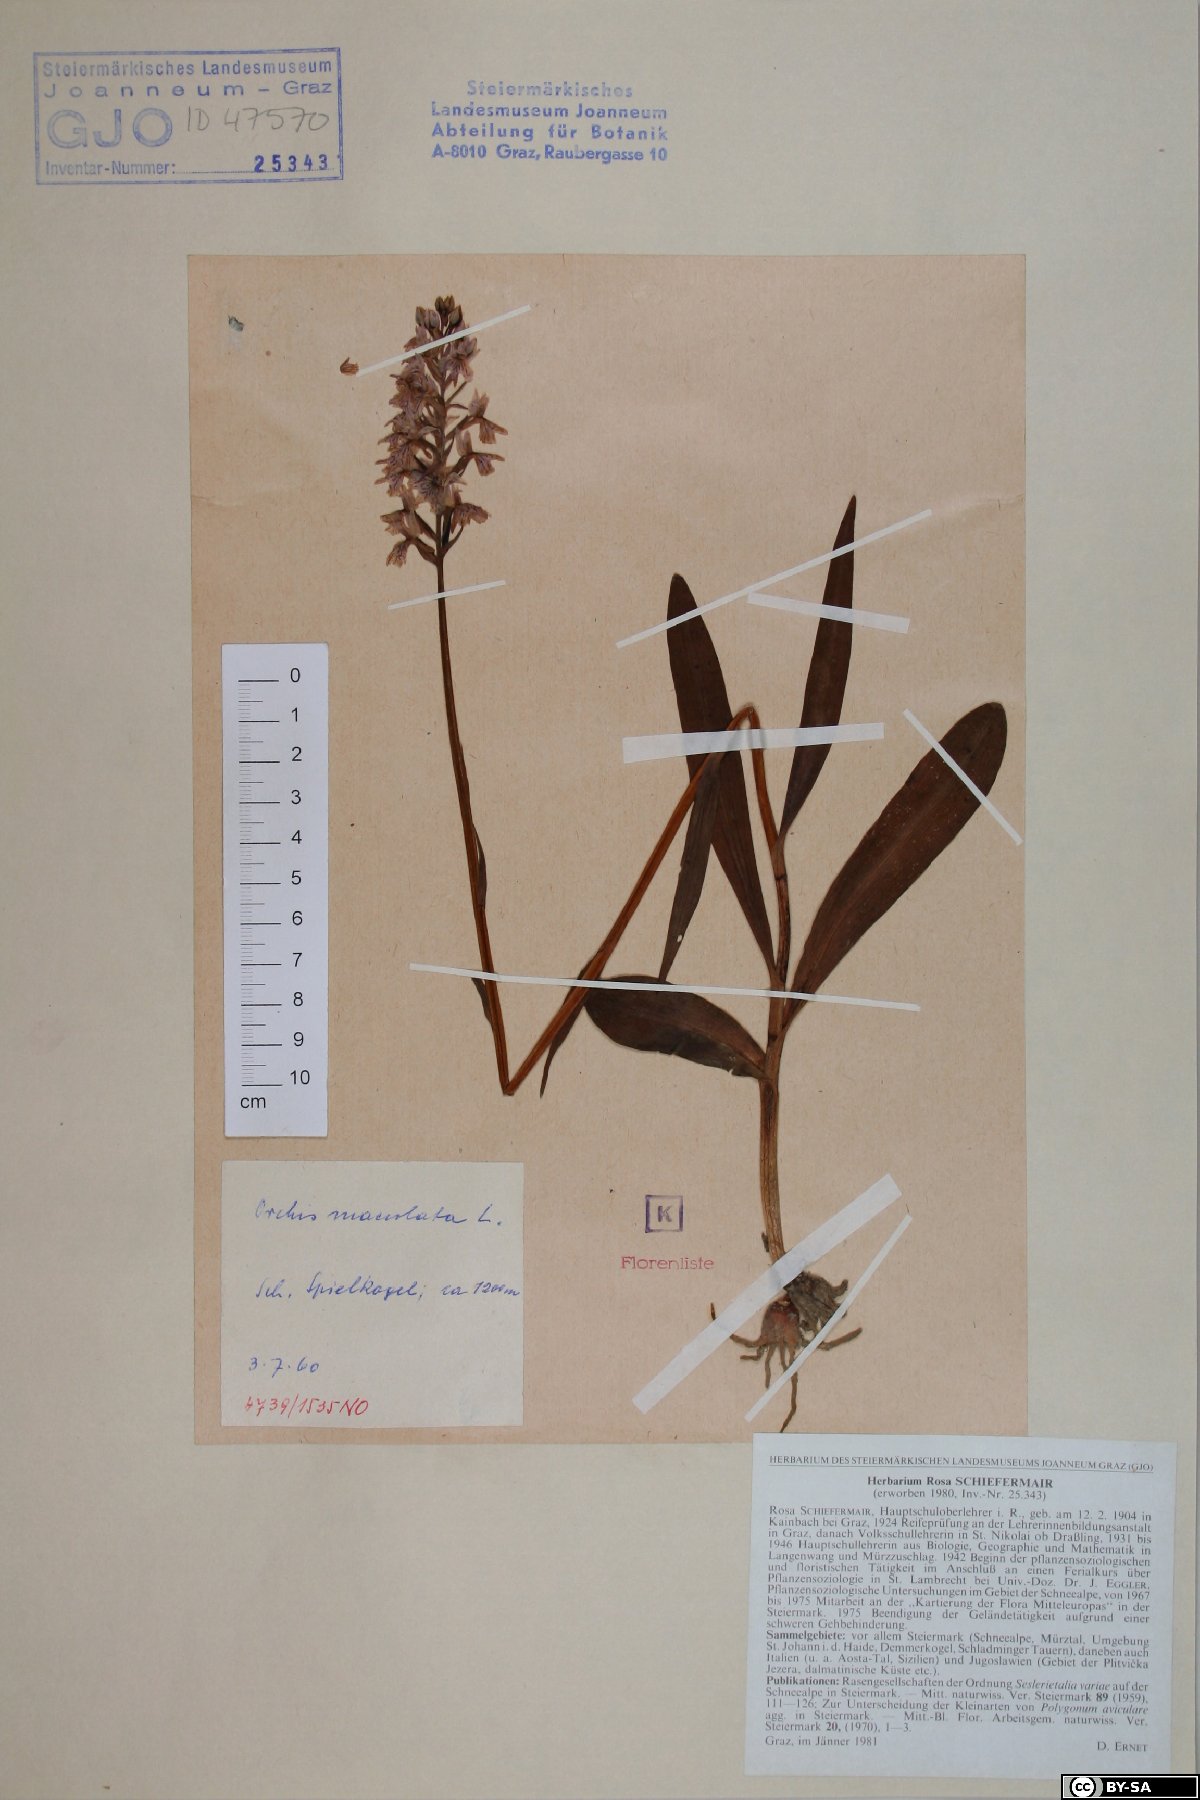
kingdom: Plantae
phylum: Tracheophyta
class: Liliopsida
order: Asparagales
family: Orchidaceae
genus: Dactylorhiza
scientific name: Dactylorhiza maculata
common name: Heath spotted-orchid
